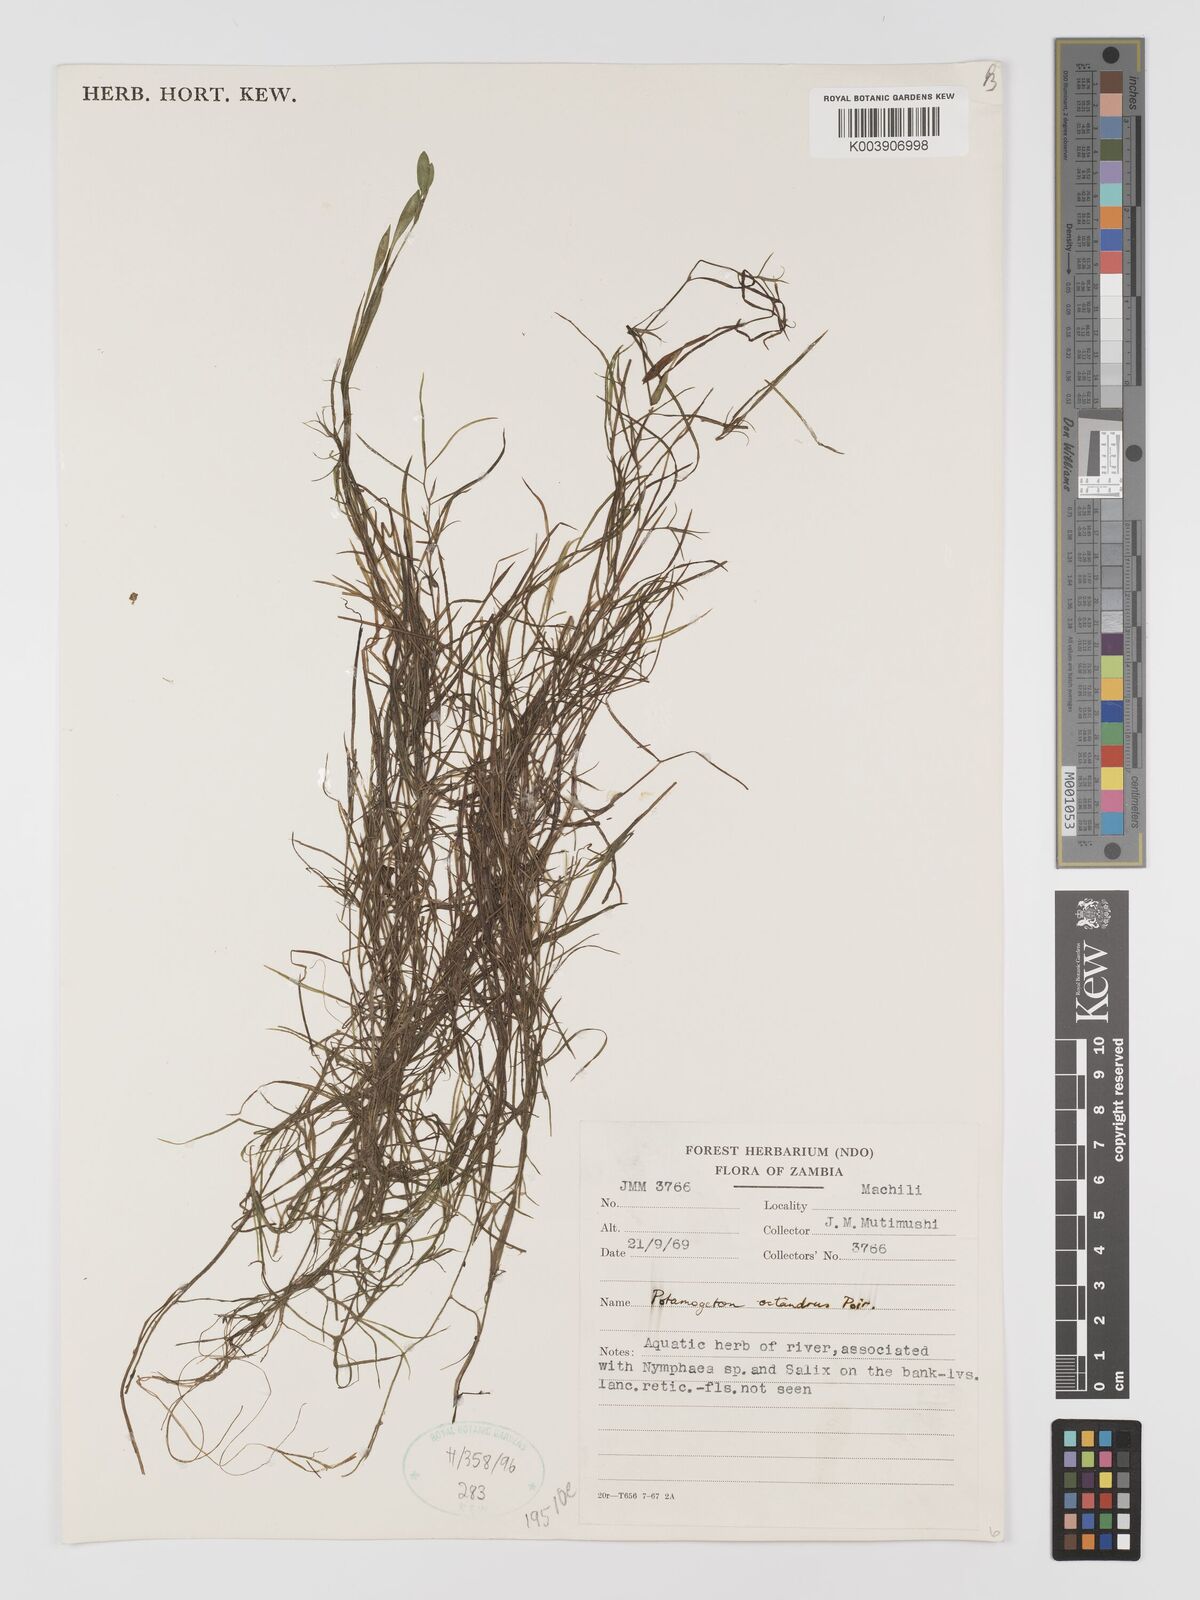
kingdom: Plantae
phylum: Tracheophyta
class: Liliopsida
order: Alismatales
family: Potamogetonaceae
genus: Potamogeton
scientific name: Potamogeton octandrus
